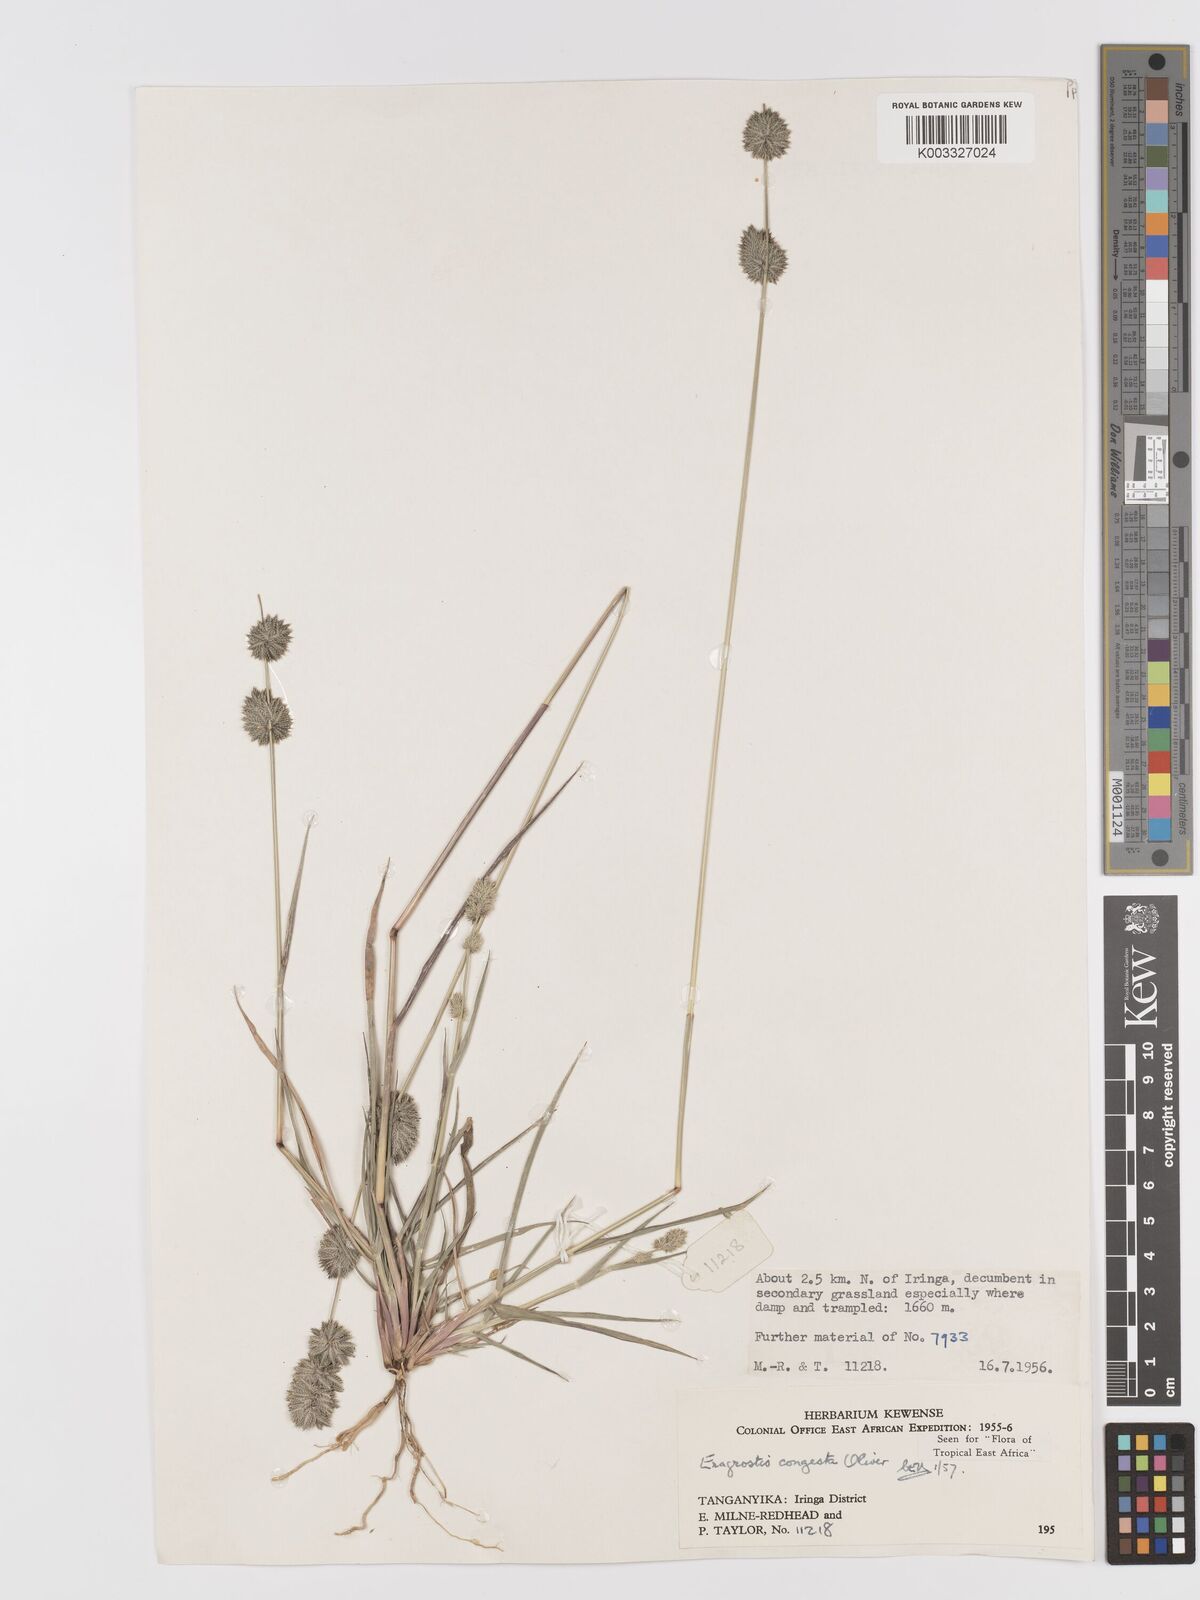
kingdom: Plantae
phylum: Tracheophyta
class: Liliopsida
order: Poales
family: Poaceae
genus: Eragrostis
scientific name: Eragrostis congesta
